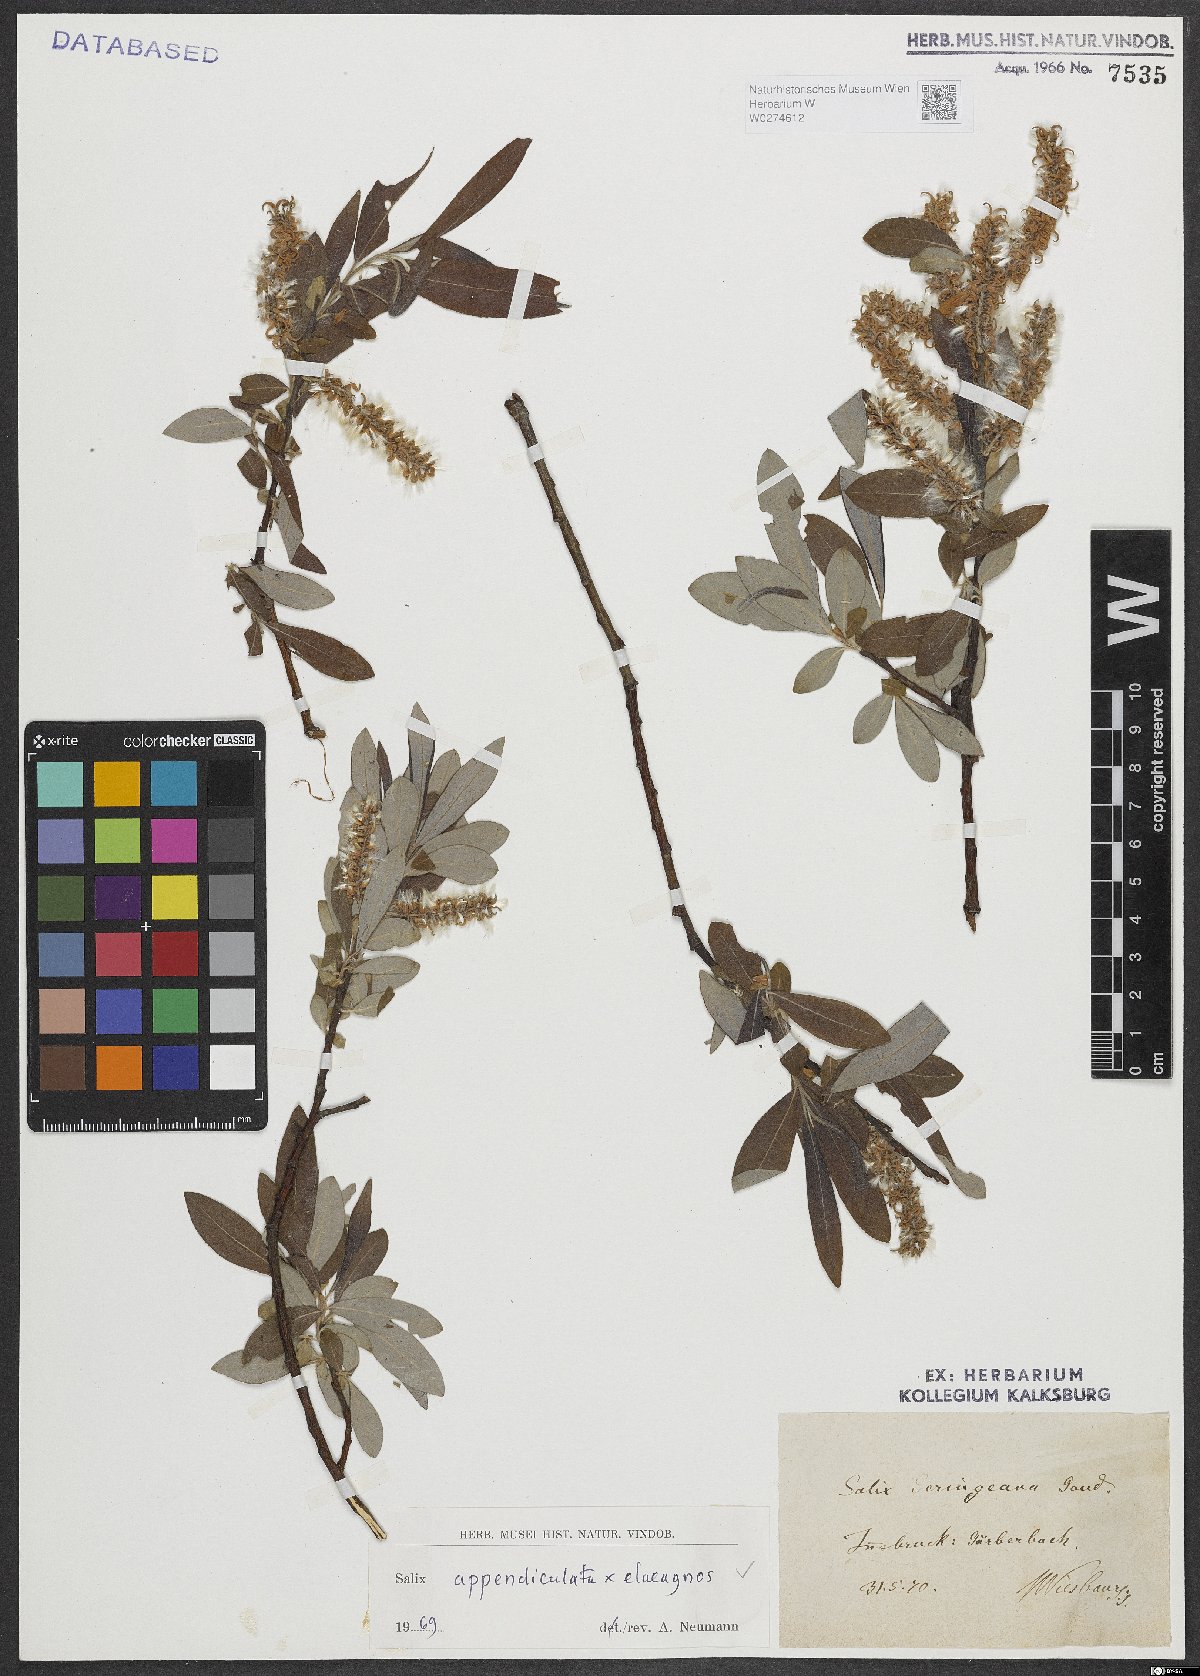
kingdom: Plantae
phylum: Tracheophyta
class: Magnoliopsida
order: Malpighiales
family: Salicaceae
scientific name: Salicaceae
